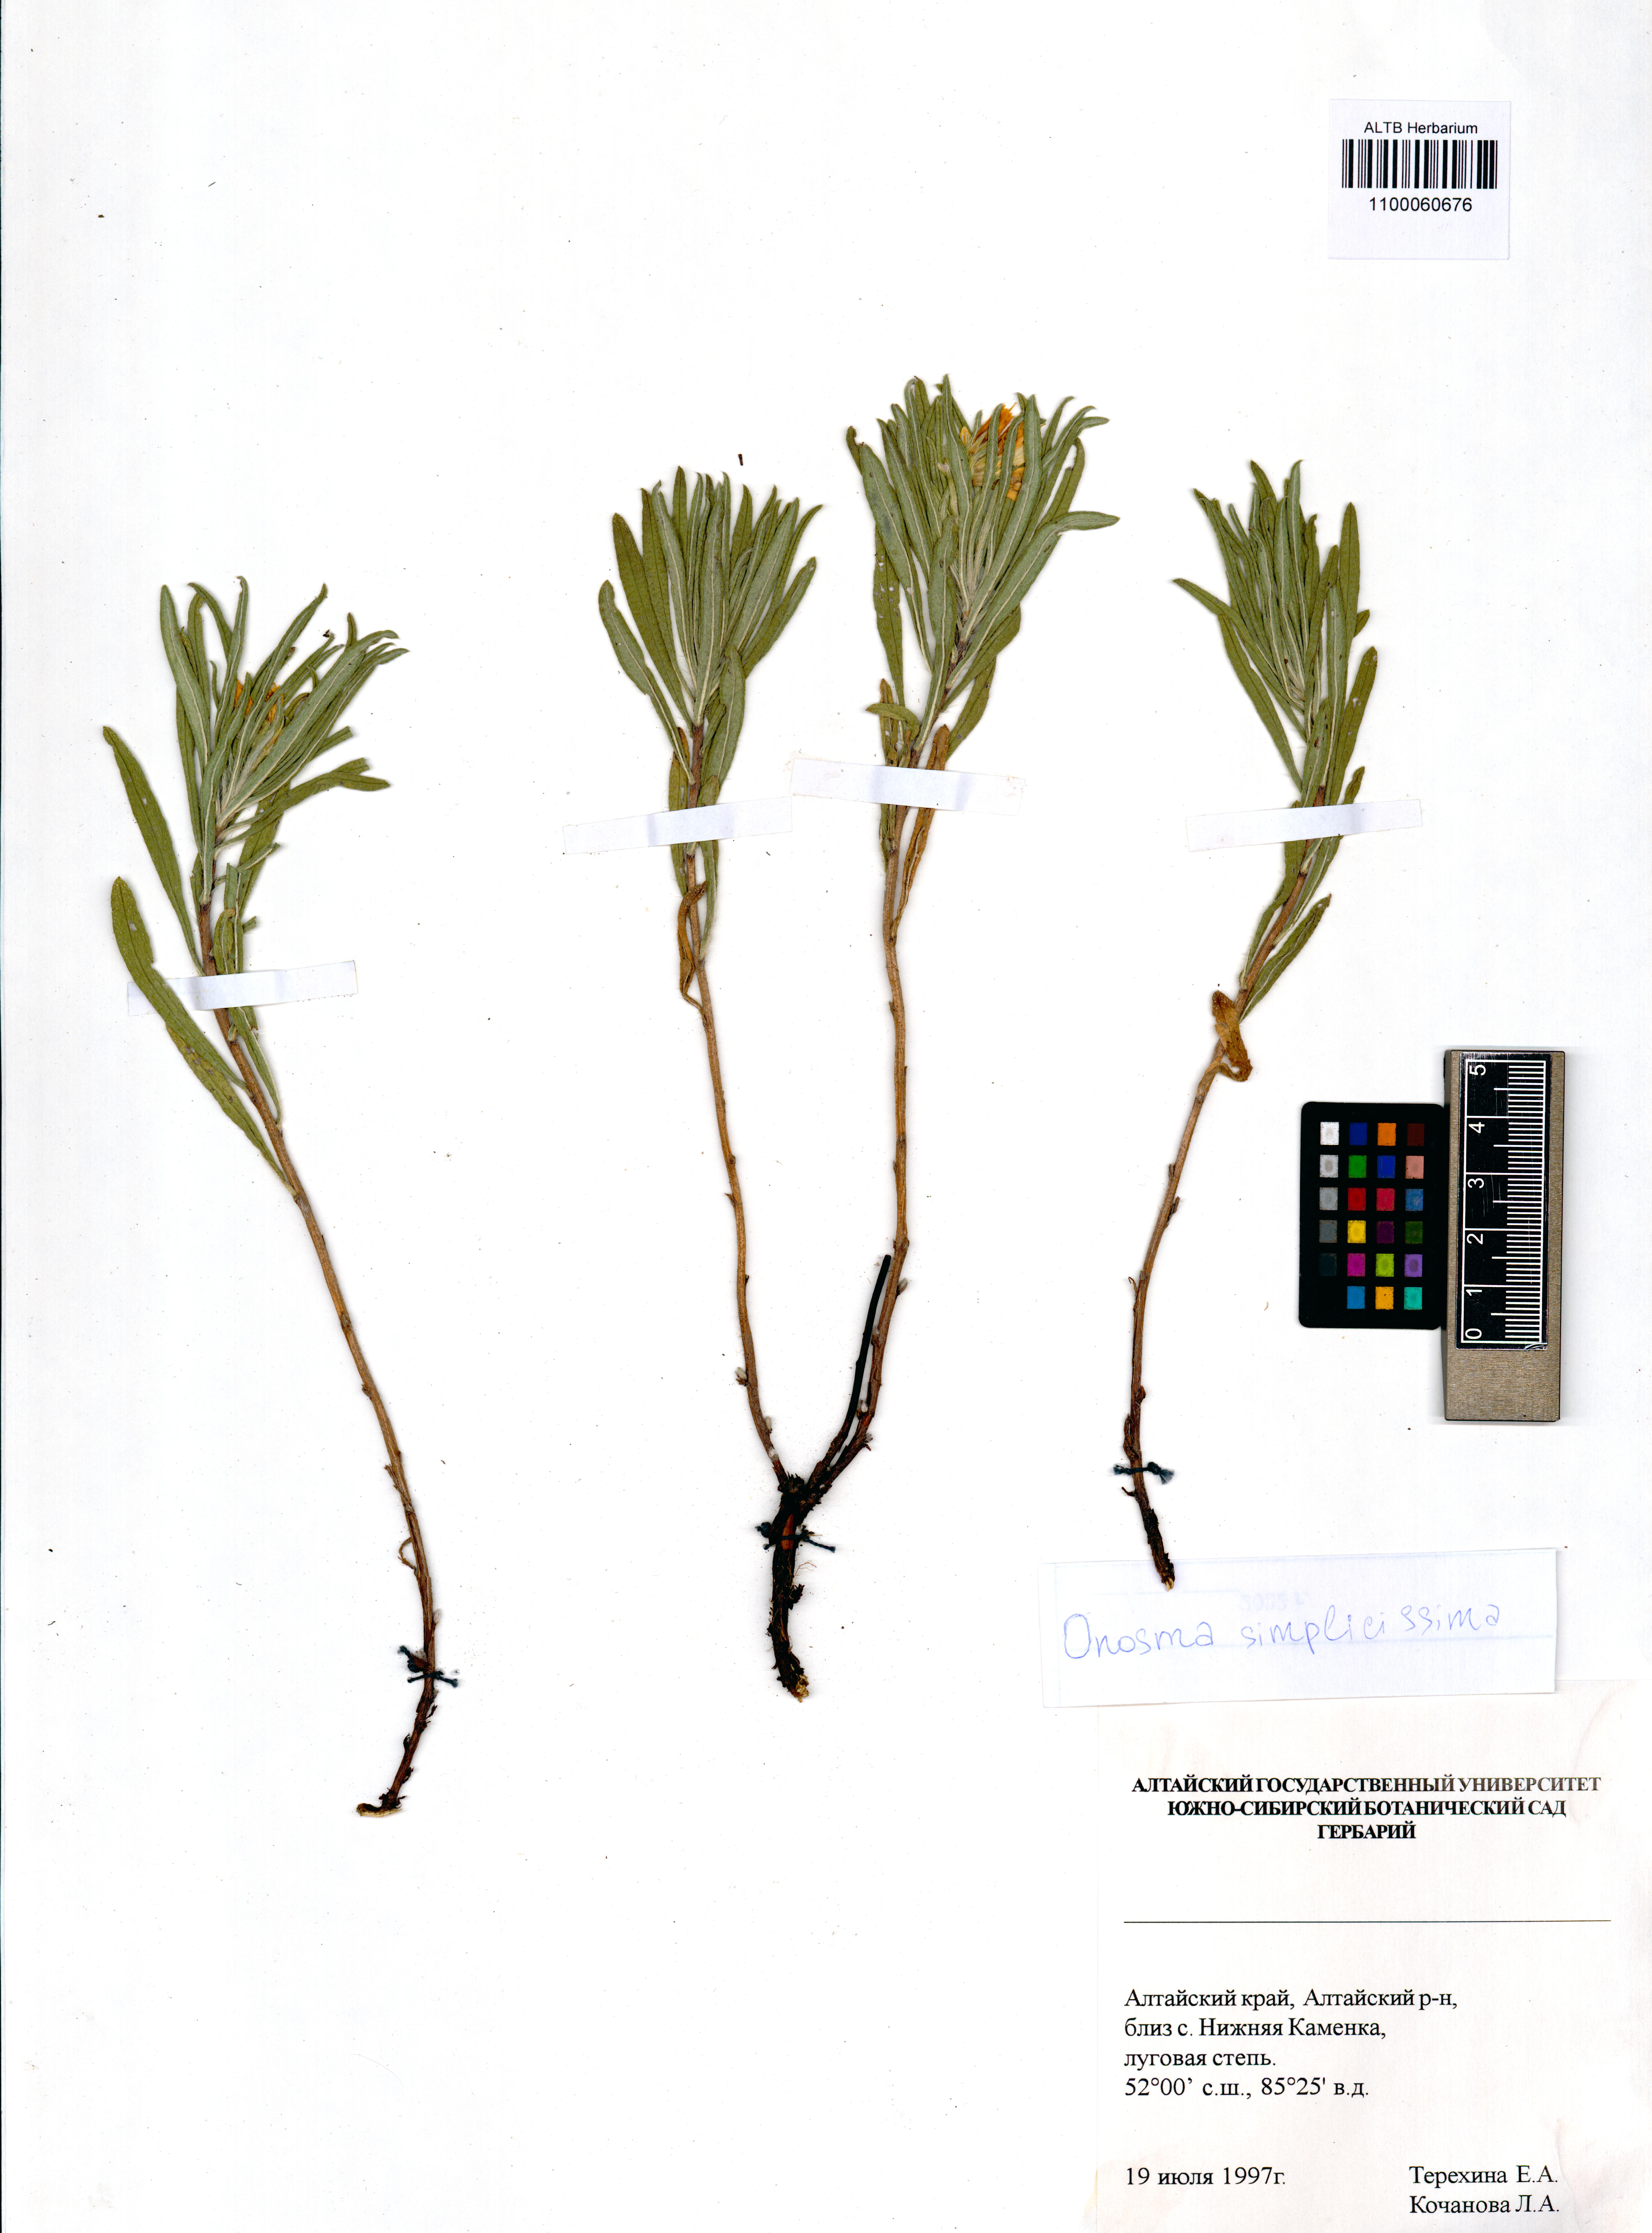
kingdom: Plantae
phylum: Tracheophyta
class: Magnoliopsida
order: Boraginales
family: Boraginaceae
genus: Onosma
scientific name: Onosma simplicissima
